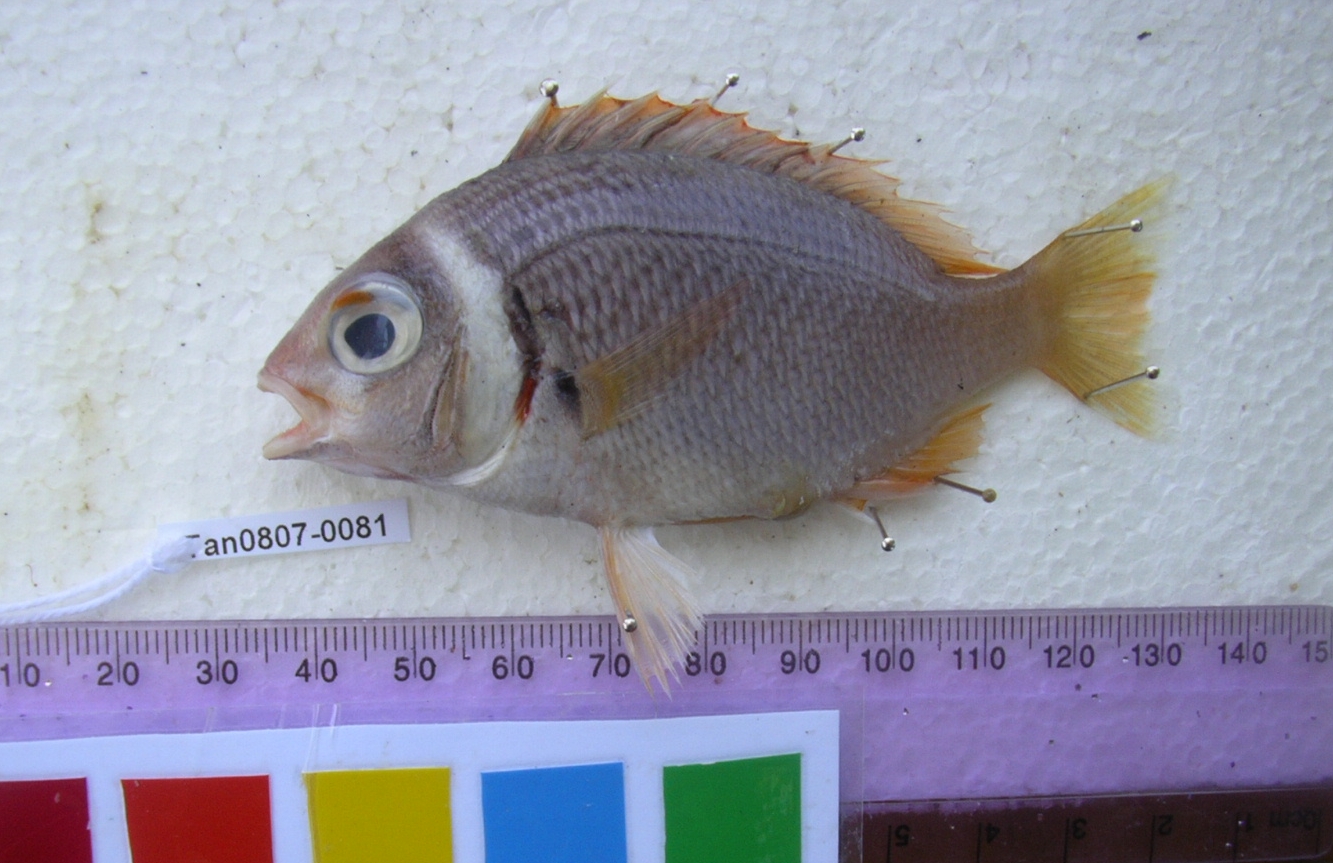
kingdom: Animalia
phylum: Chordata
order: Perciformes
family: Nemipteridae
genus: Scolopsis
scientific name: Scolopsis vosmeri
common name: Whitecheek monocle bream
